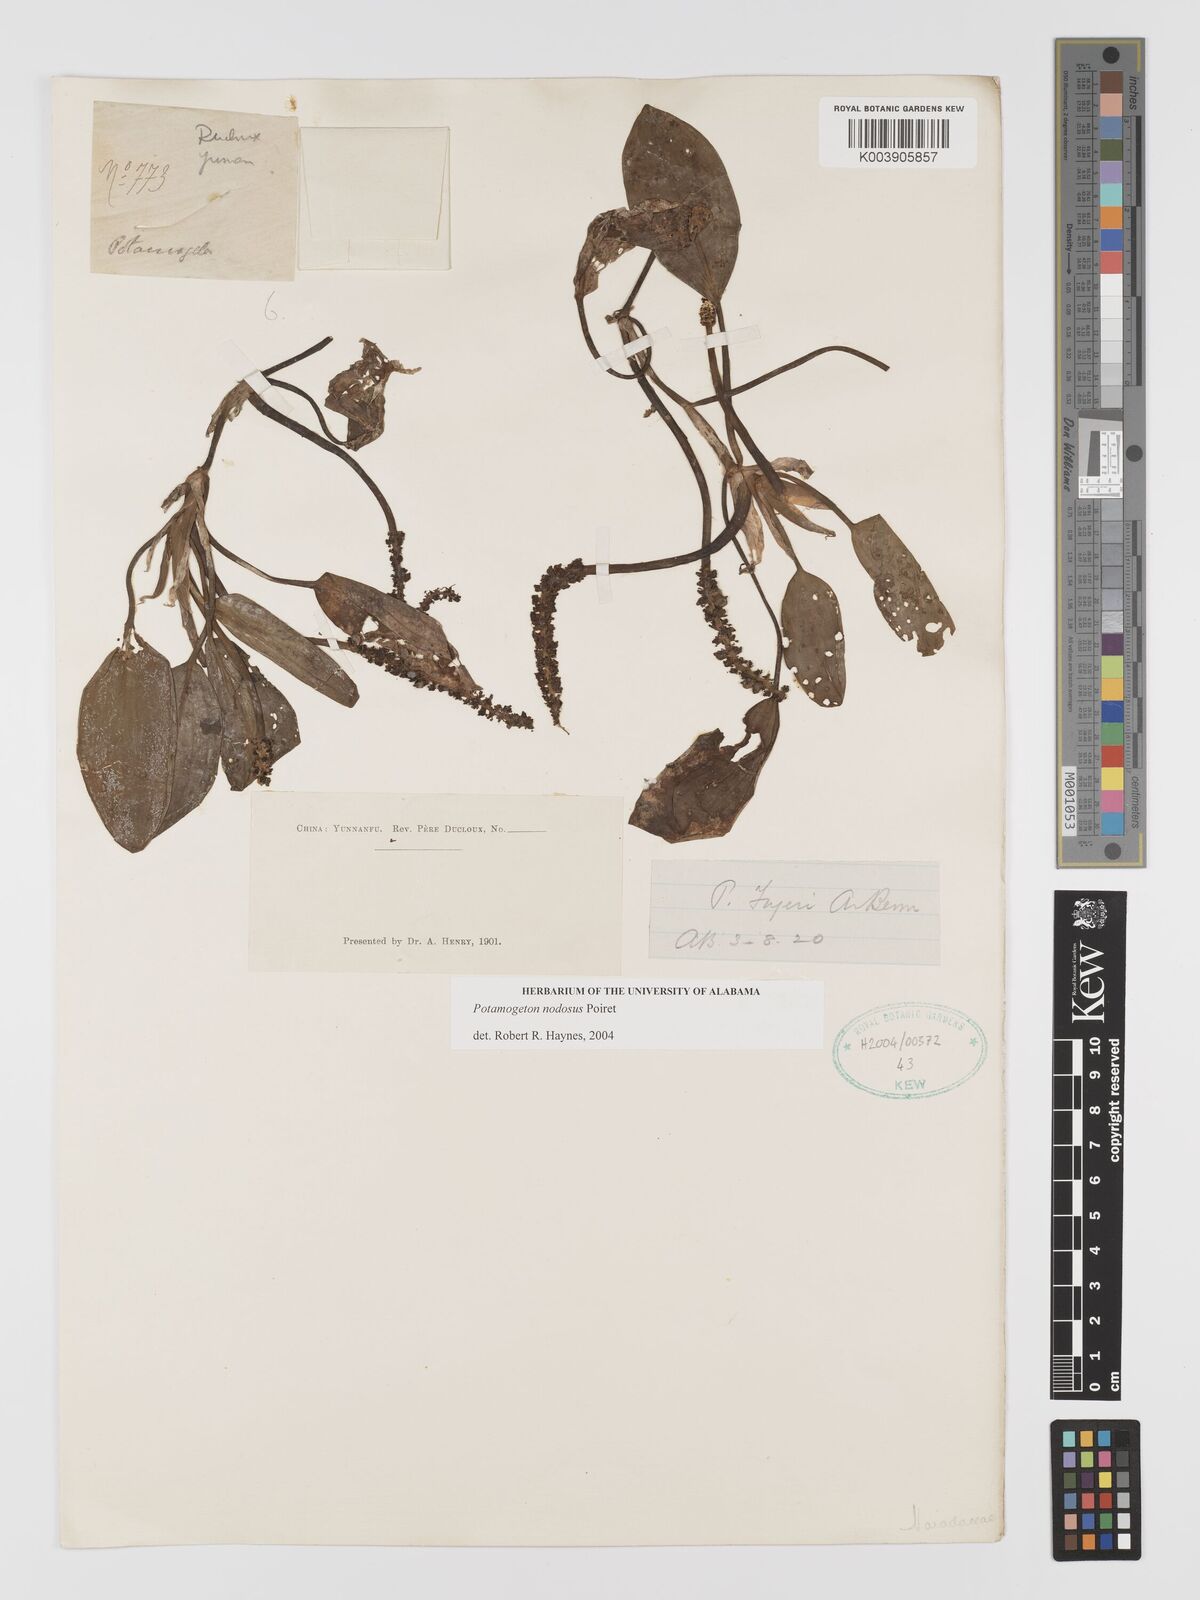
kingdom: Plantae
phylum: Tracheophyta
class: Liliopsida
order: Alismatales
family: Potamogetonaceae
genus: Potamogeton
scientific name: Potamogeton nodosus
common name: Loddon pondweed
